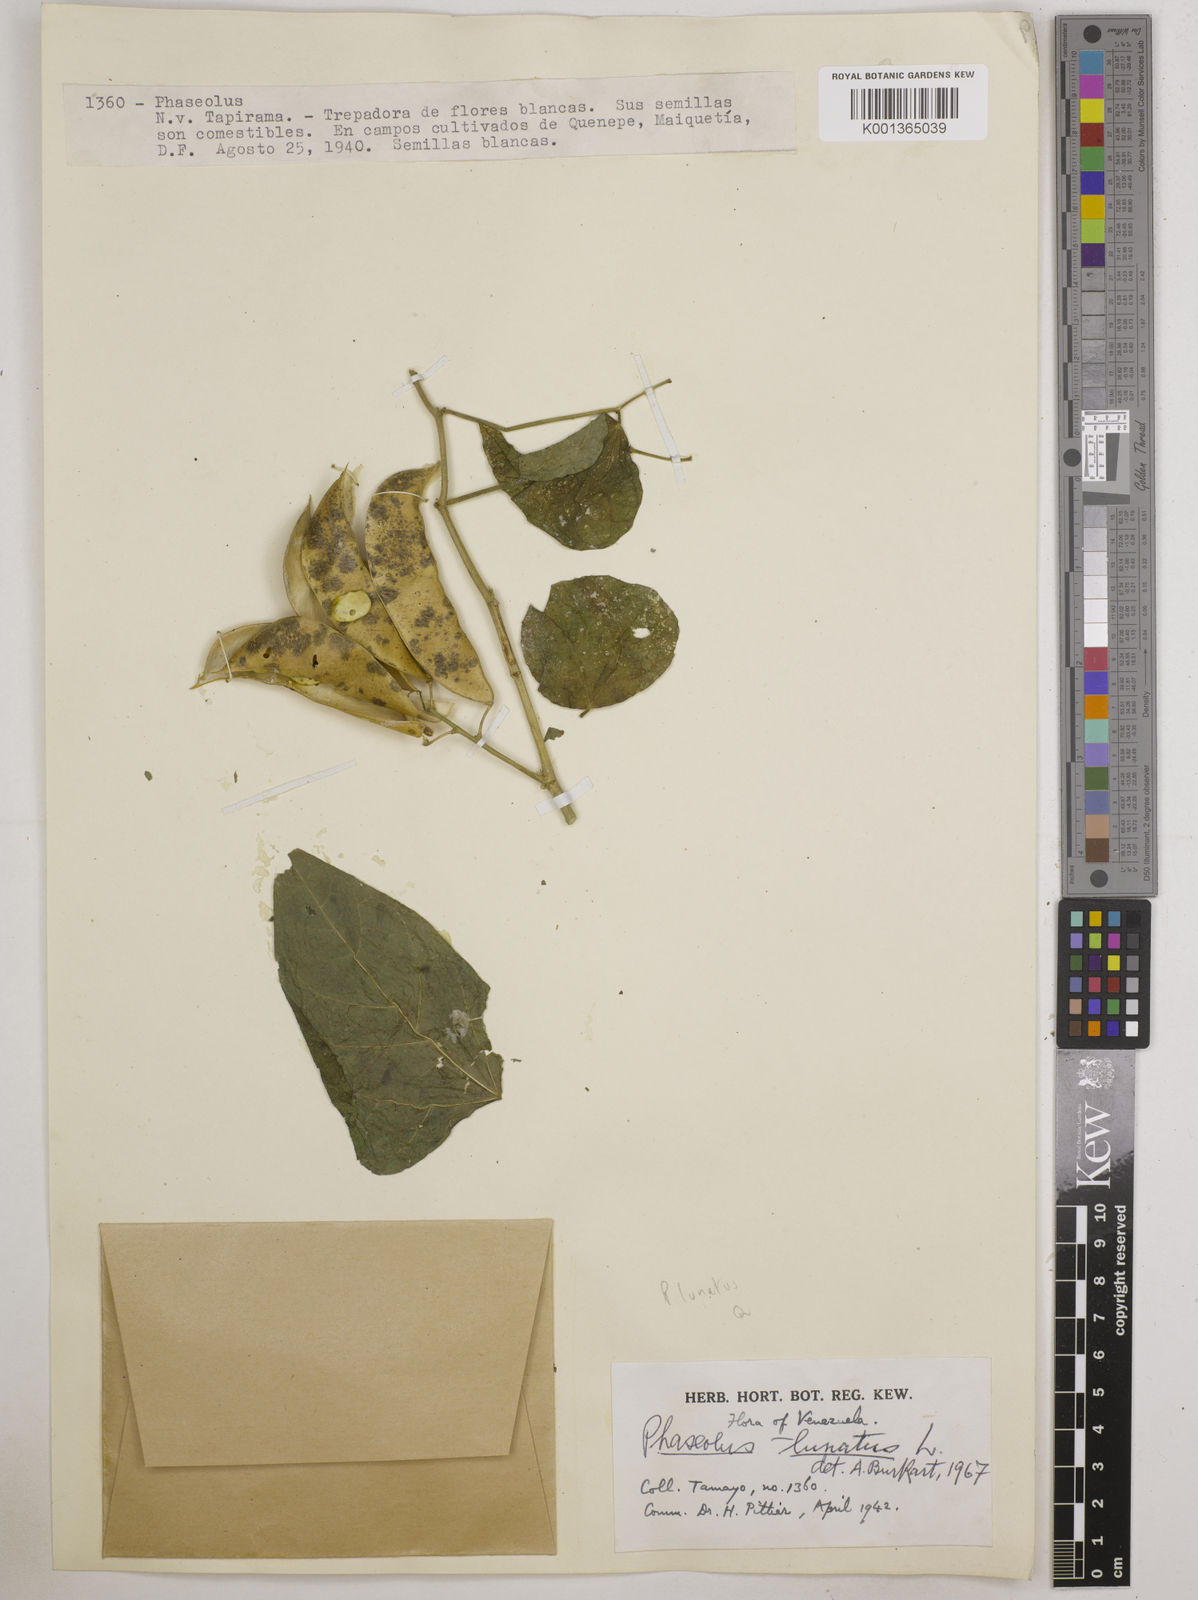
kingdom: Plantae
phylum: Tracheophyta
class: Magnoliopsida
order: Fabales
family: Fabaceae
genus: Phaseolus
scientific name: Phaseolus lunatus
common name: Sieva bean
